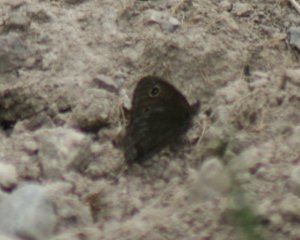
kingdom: Animalia
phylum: Arthropoda
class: Insecta
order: Lepidoptera
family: Nymphalidae
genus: Cercyonis
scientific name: Cercyonis pegala
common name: Common Wood-Nymph
